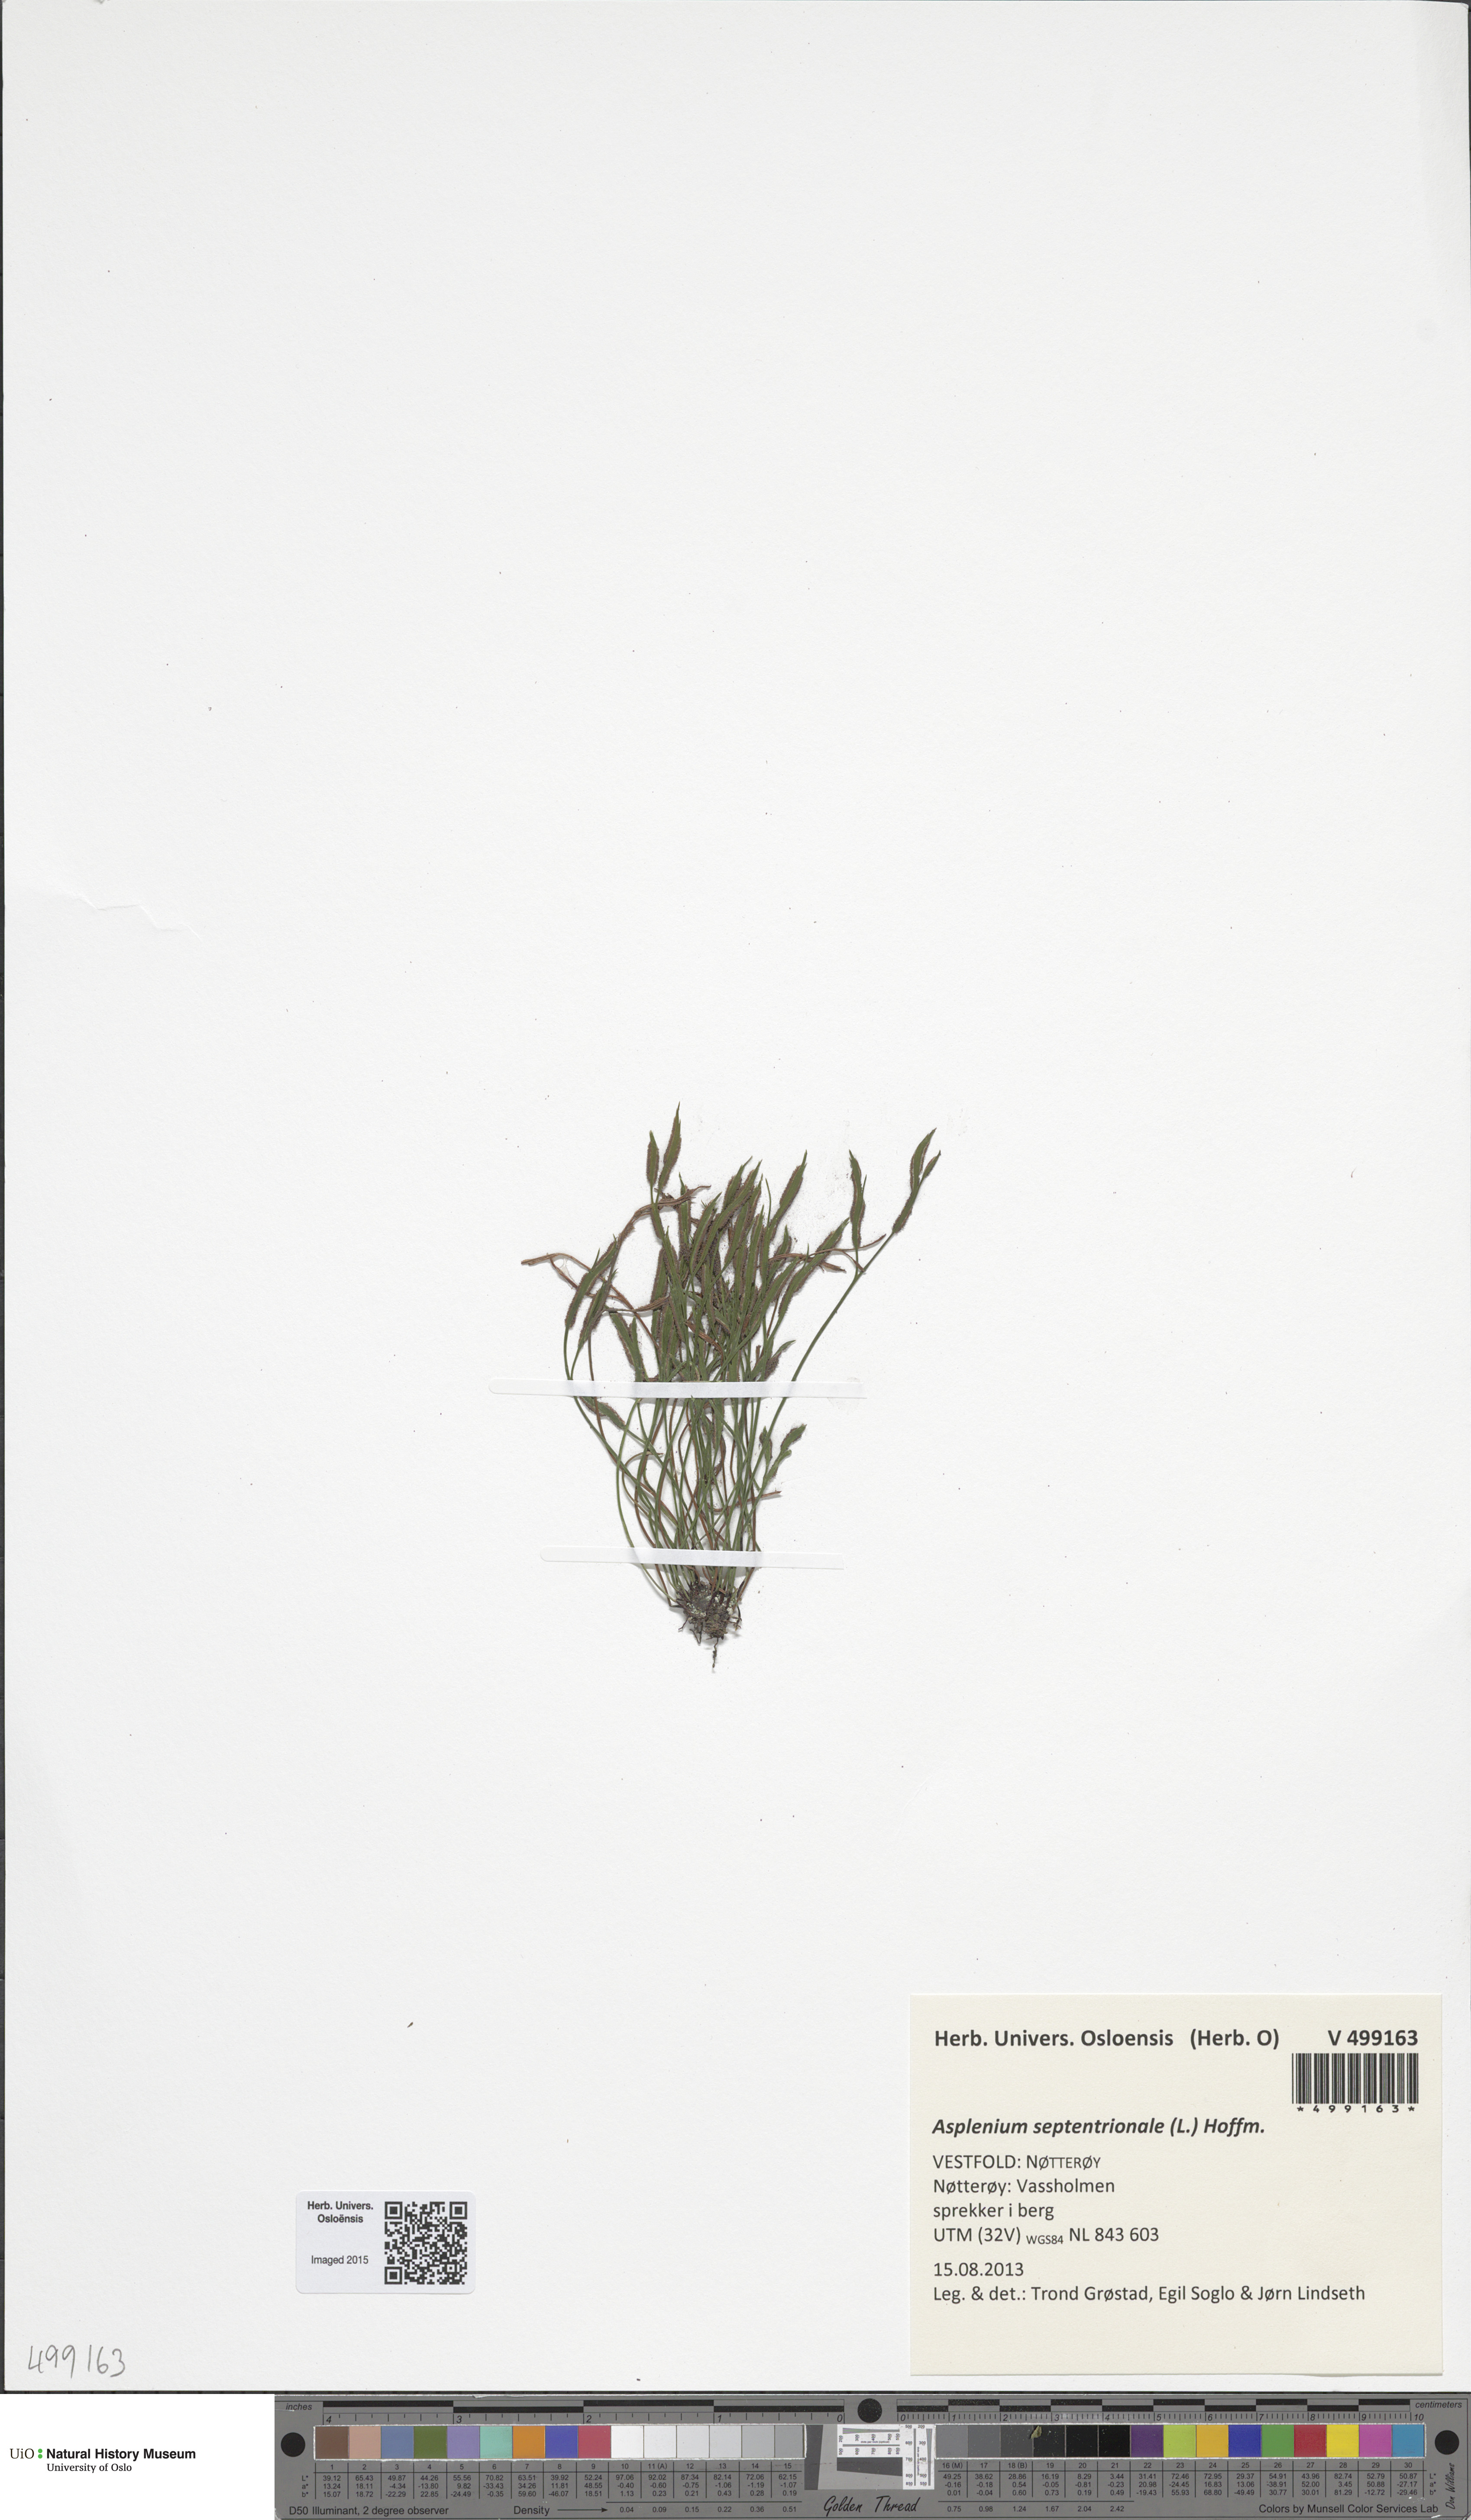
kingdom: Plantae
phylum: Tracheophyta
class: Polypodiopsida
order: Polypodiales
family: Aspleniaceae
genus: Asplenium
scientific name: Asplenium septentrionale
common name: Forked spleenwort
